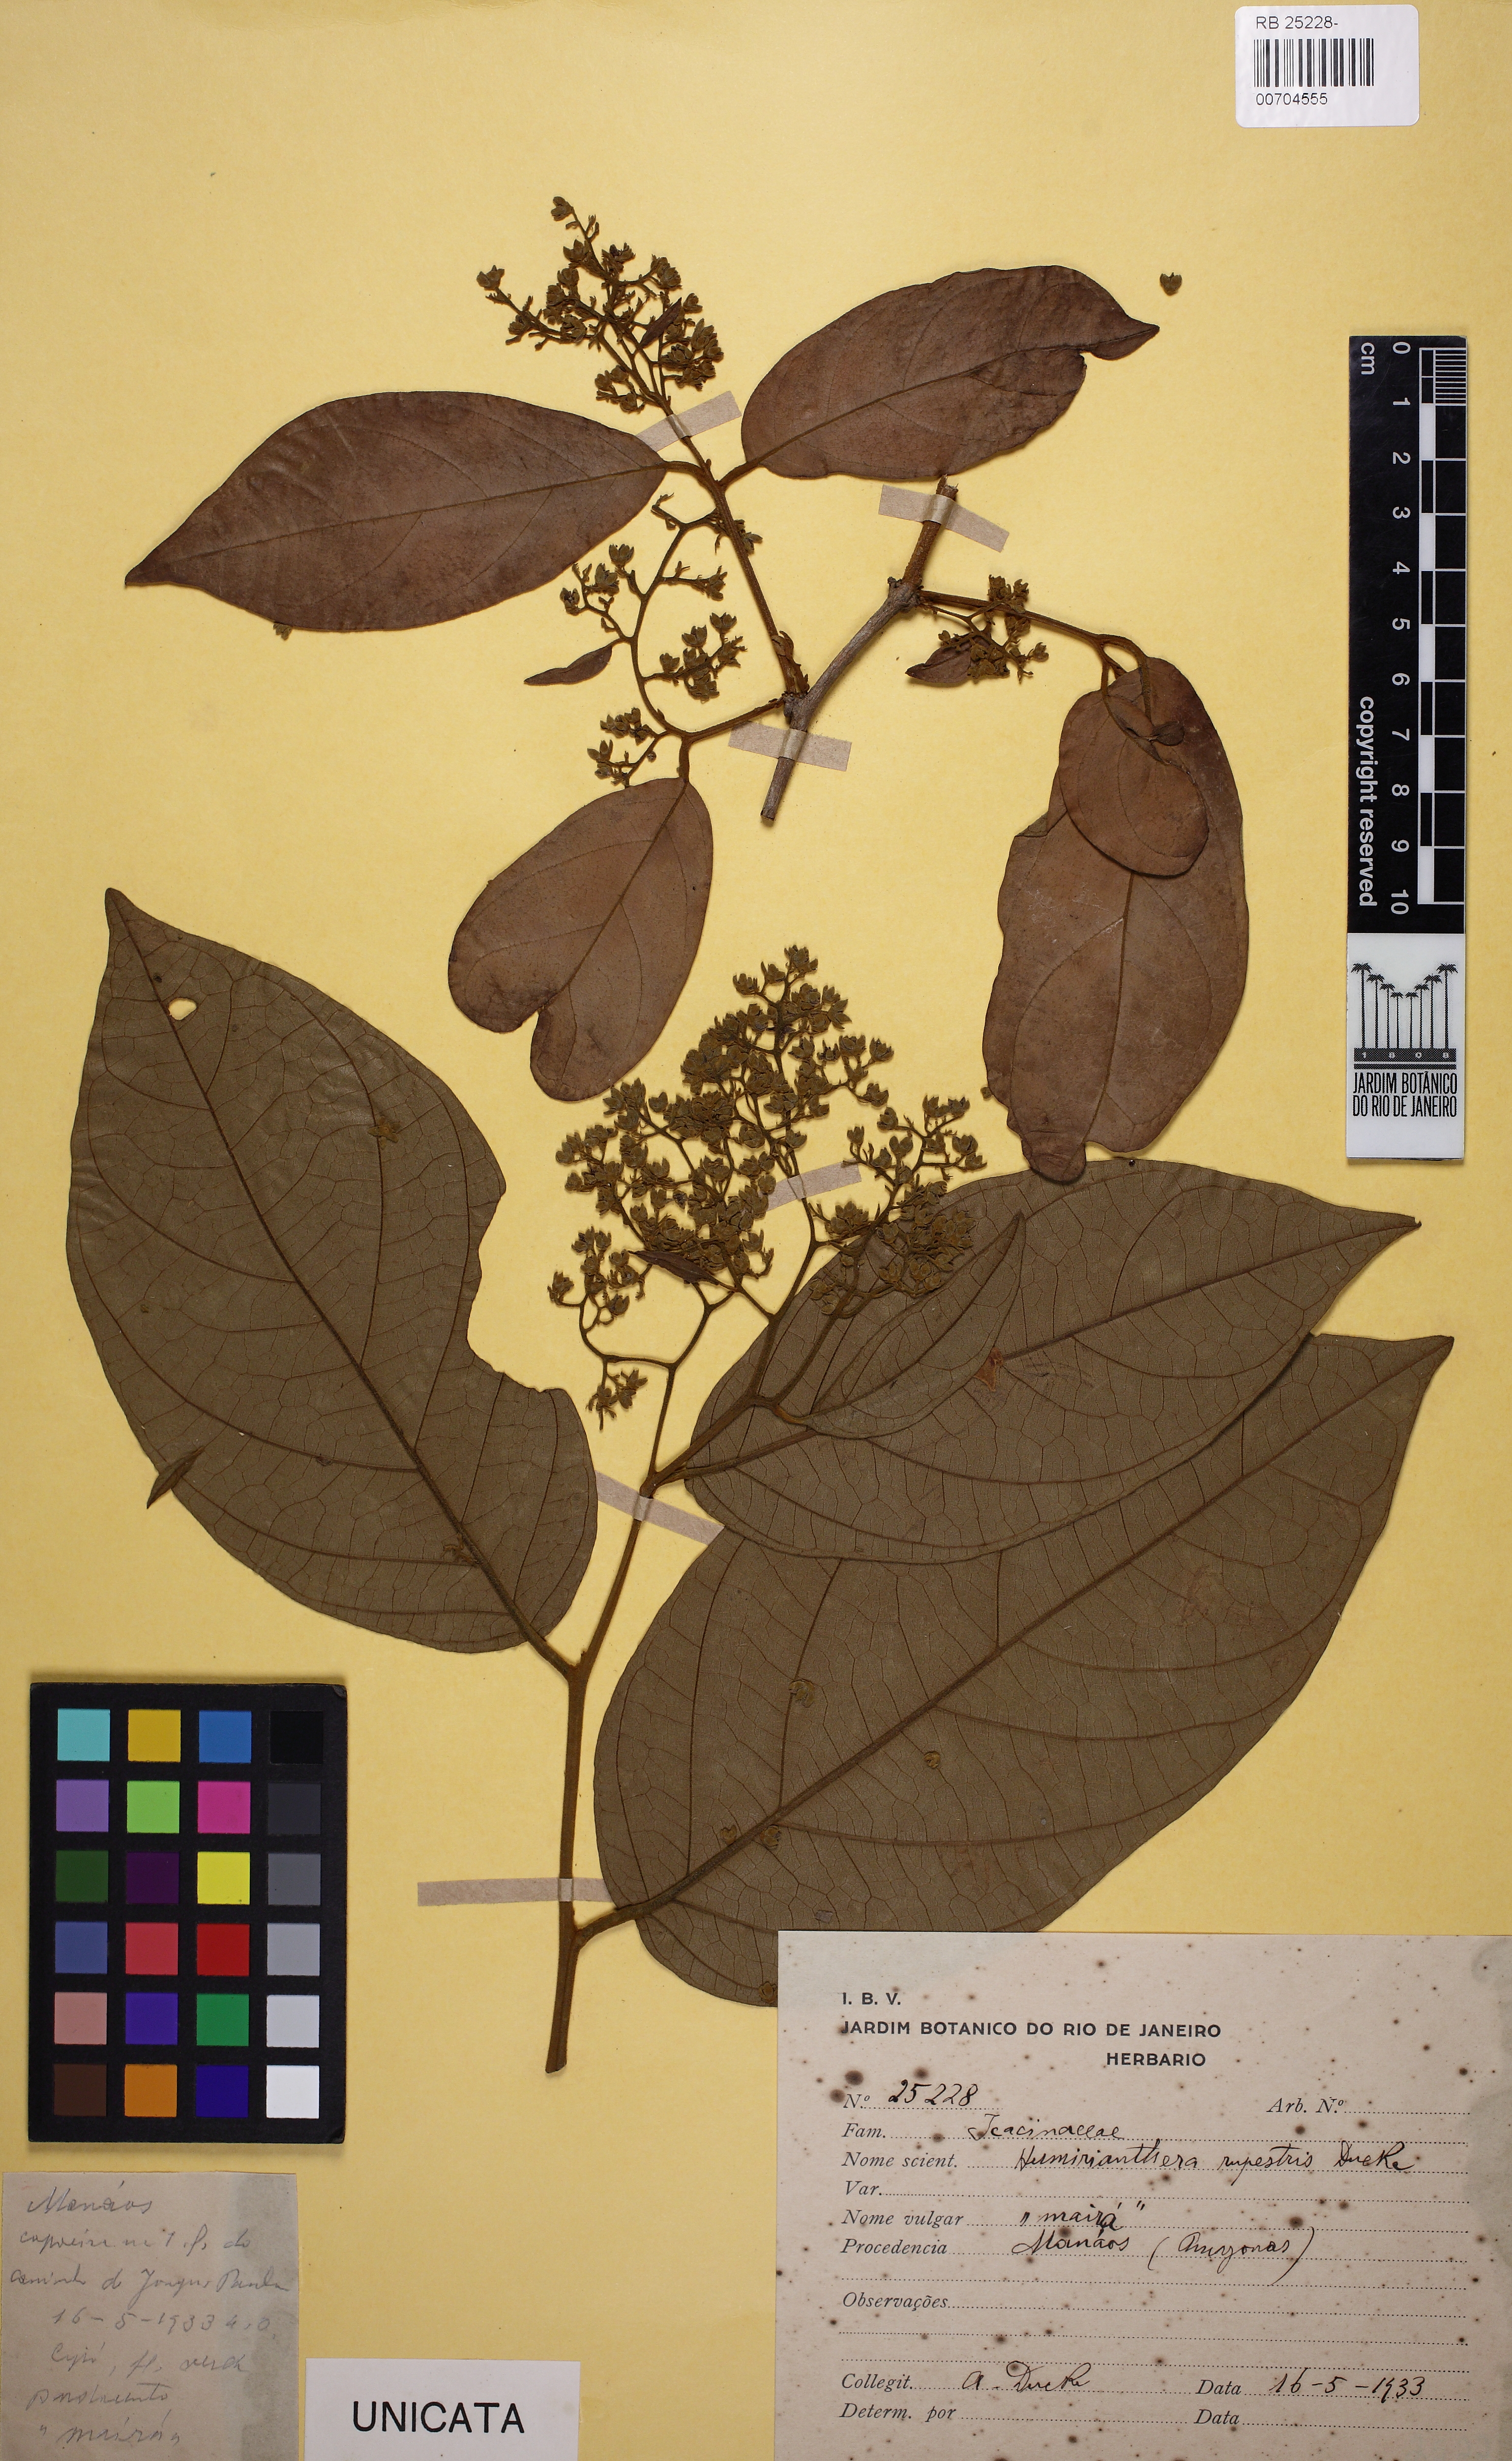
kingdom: Plantae
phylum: Tracheophyta
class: Magnoliopsida
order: Icacinales
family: Icacinaceae
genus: Casimirella
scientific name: Casimirella rupestris
